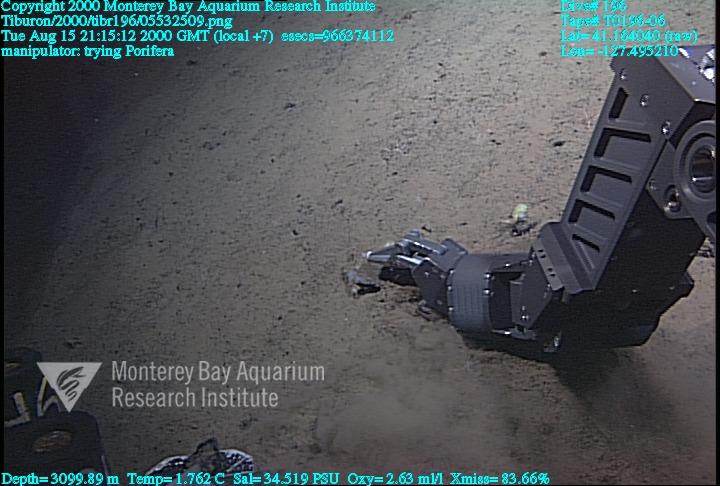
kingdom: Animalia
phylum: Porifera
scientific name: Porifera
